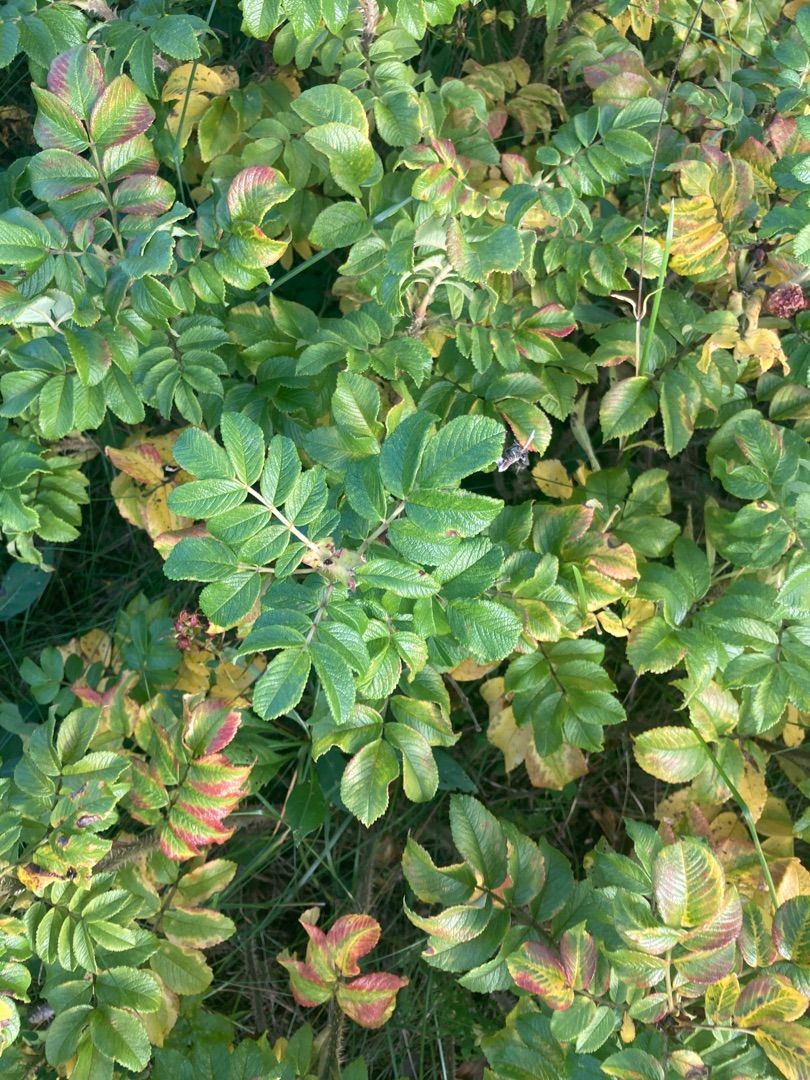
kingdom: Plantae
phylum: Tracheophyta
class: Magnoliopsida
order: Rosales
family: Rosaceae
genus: Rosa
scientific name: Rosa rugosa
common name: Rynket rose
